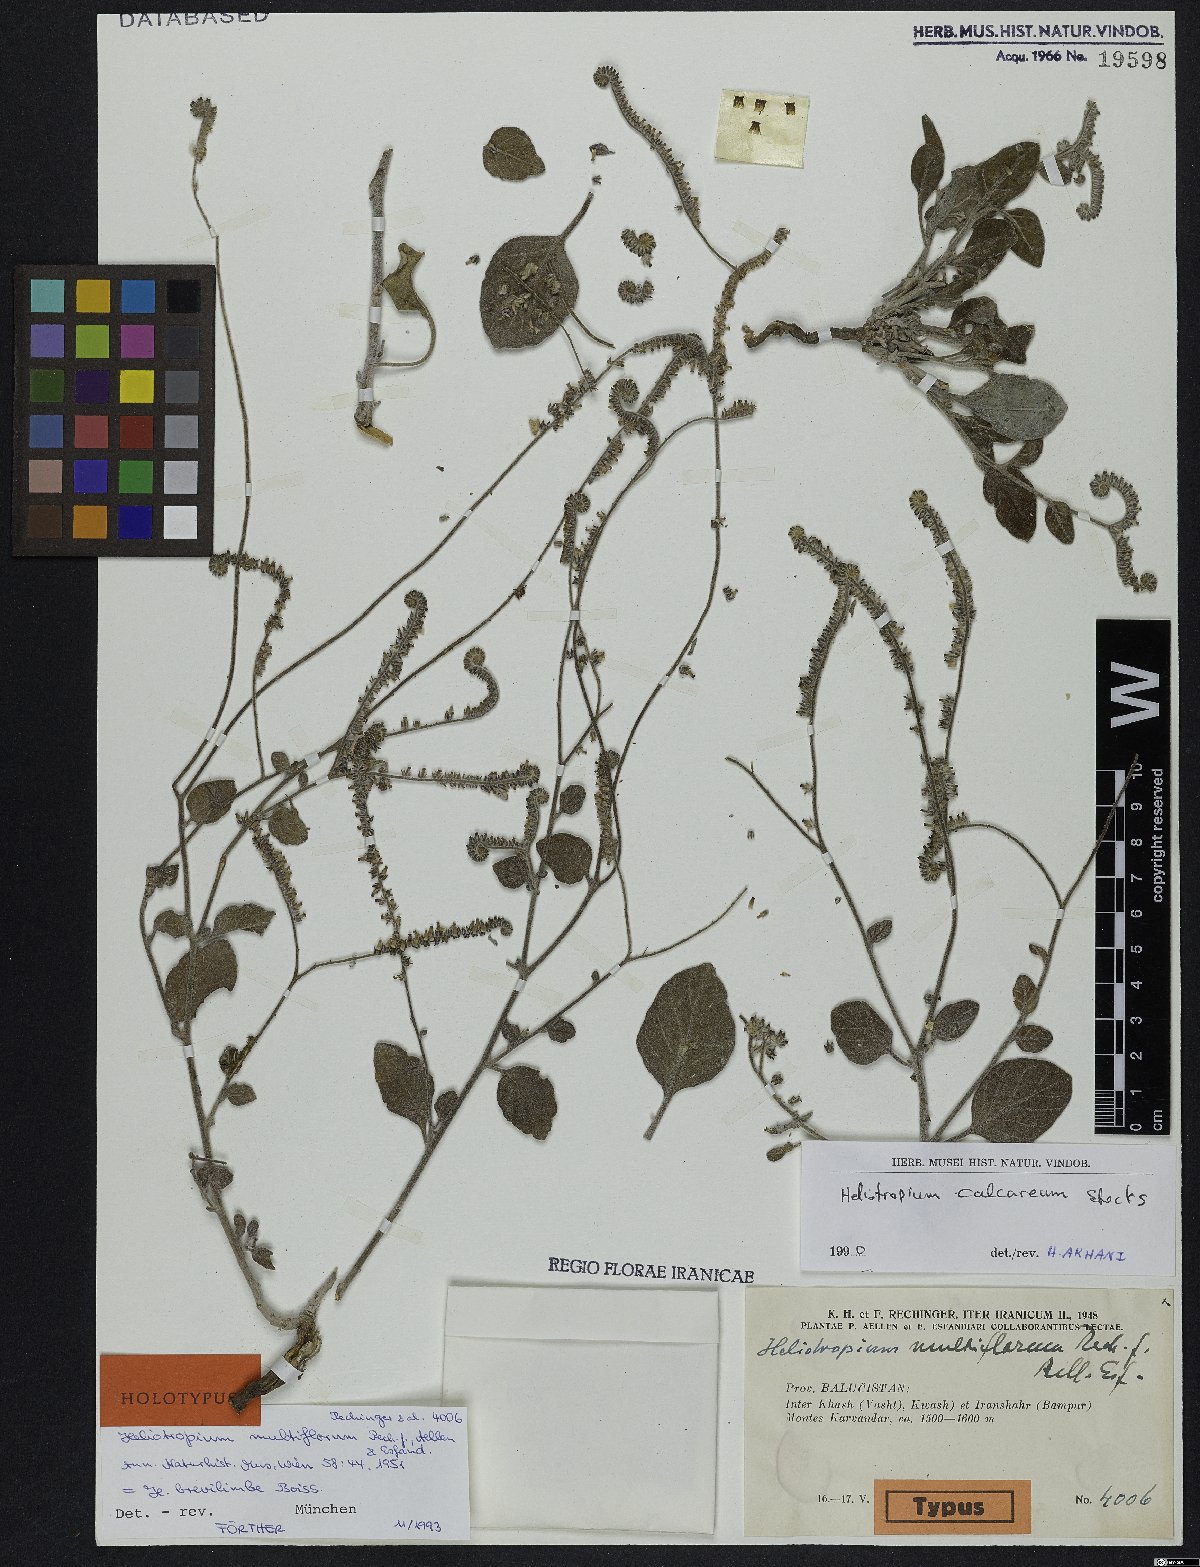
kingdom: Plantae
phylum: Tracheophyta
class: Magnoliopsida
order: Boraginales
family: Heliotropiaceae
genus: Heliotropium
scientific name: Heliotropium brevilimbe
